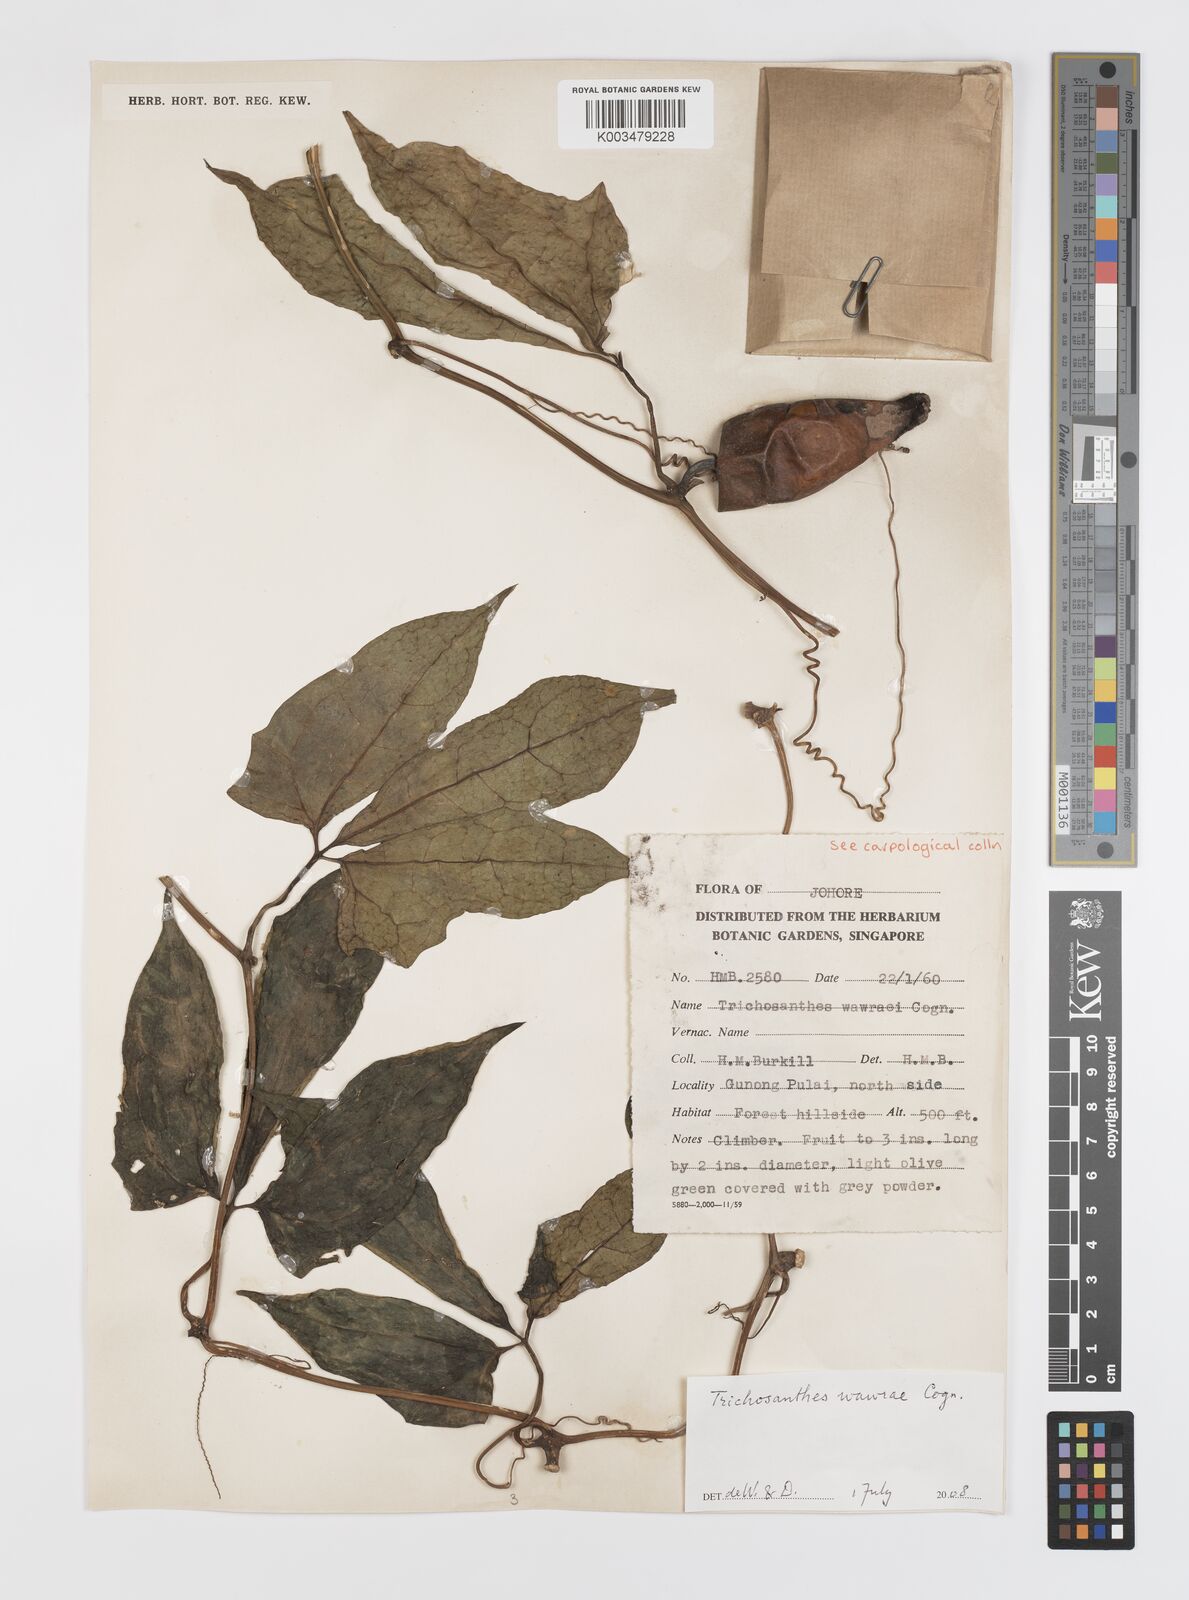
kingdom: Plantae
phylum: Tracheophyta
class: Magnoliopsida
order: Cucurbitales
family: Cucurbitaceae
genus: Trichosanthes
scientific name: Trichosanthes wawrae
